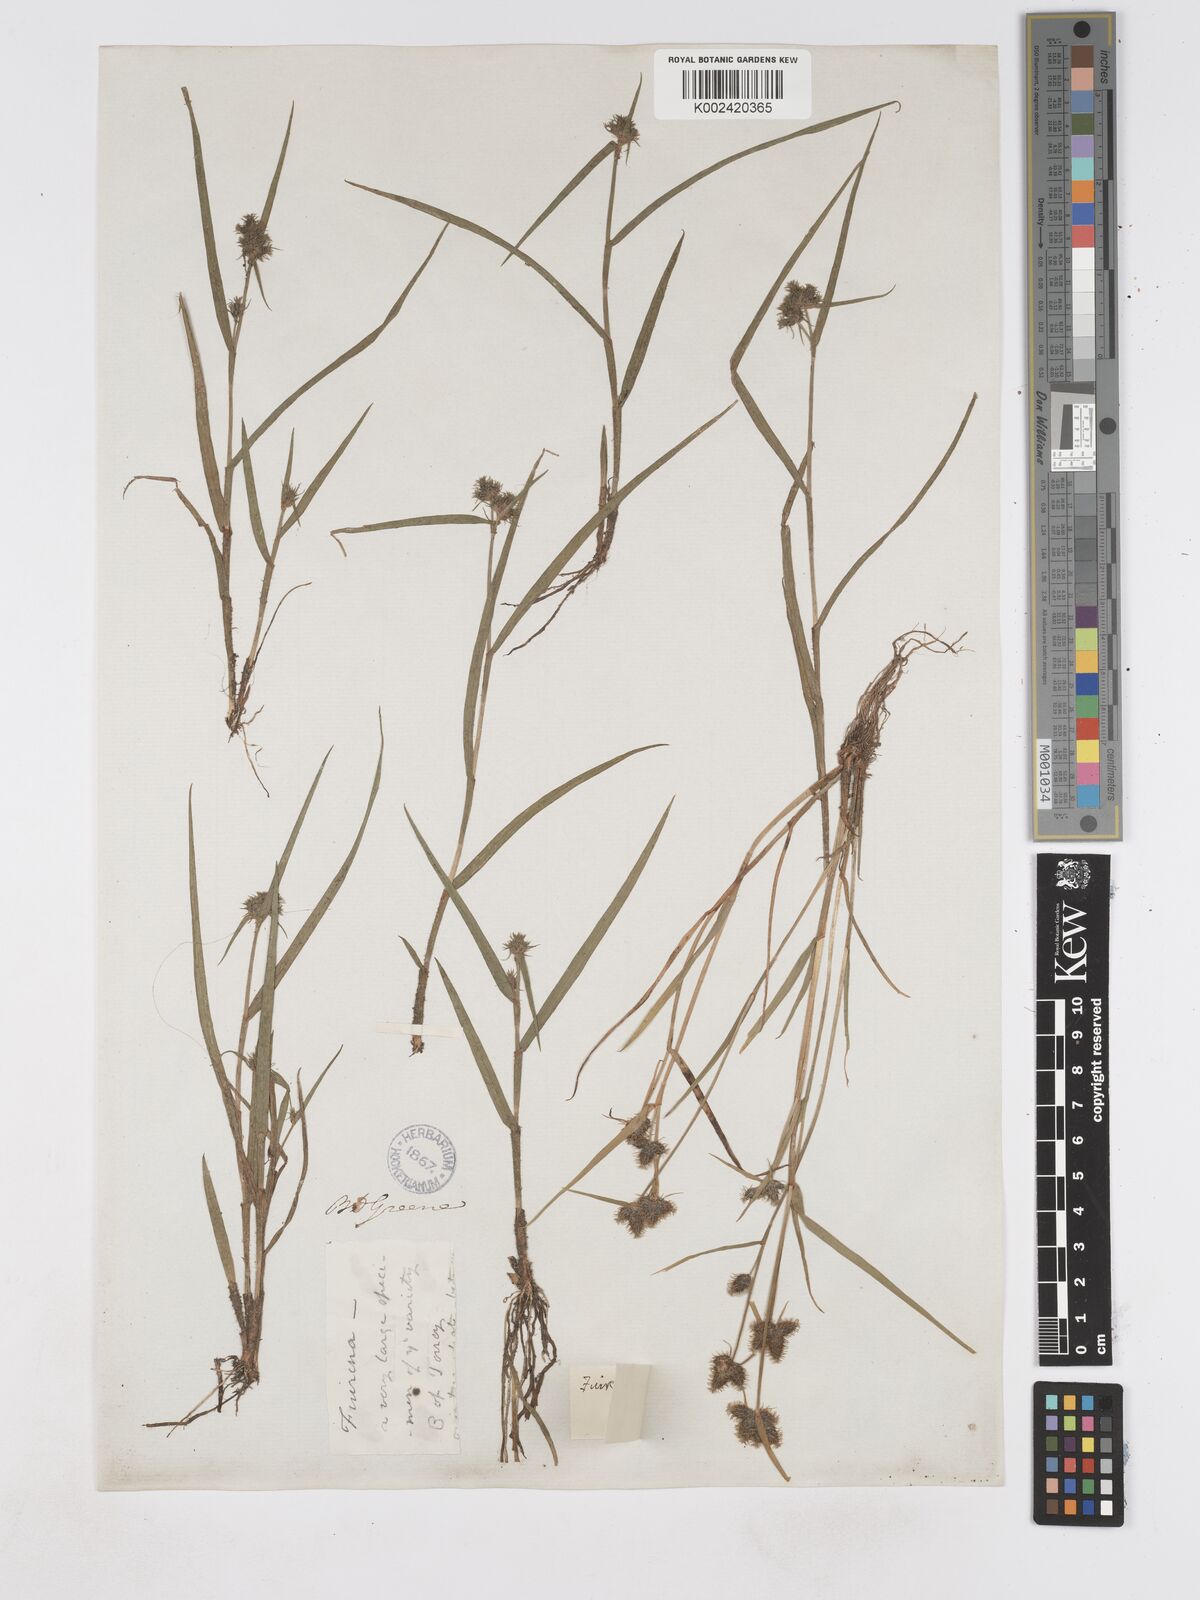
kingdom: Plantae
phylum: Tracheophyta
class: Liliopsida
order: Poales
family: Cyperaceae
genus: Fuirena
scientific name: Fuirena squarrosa
